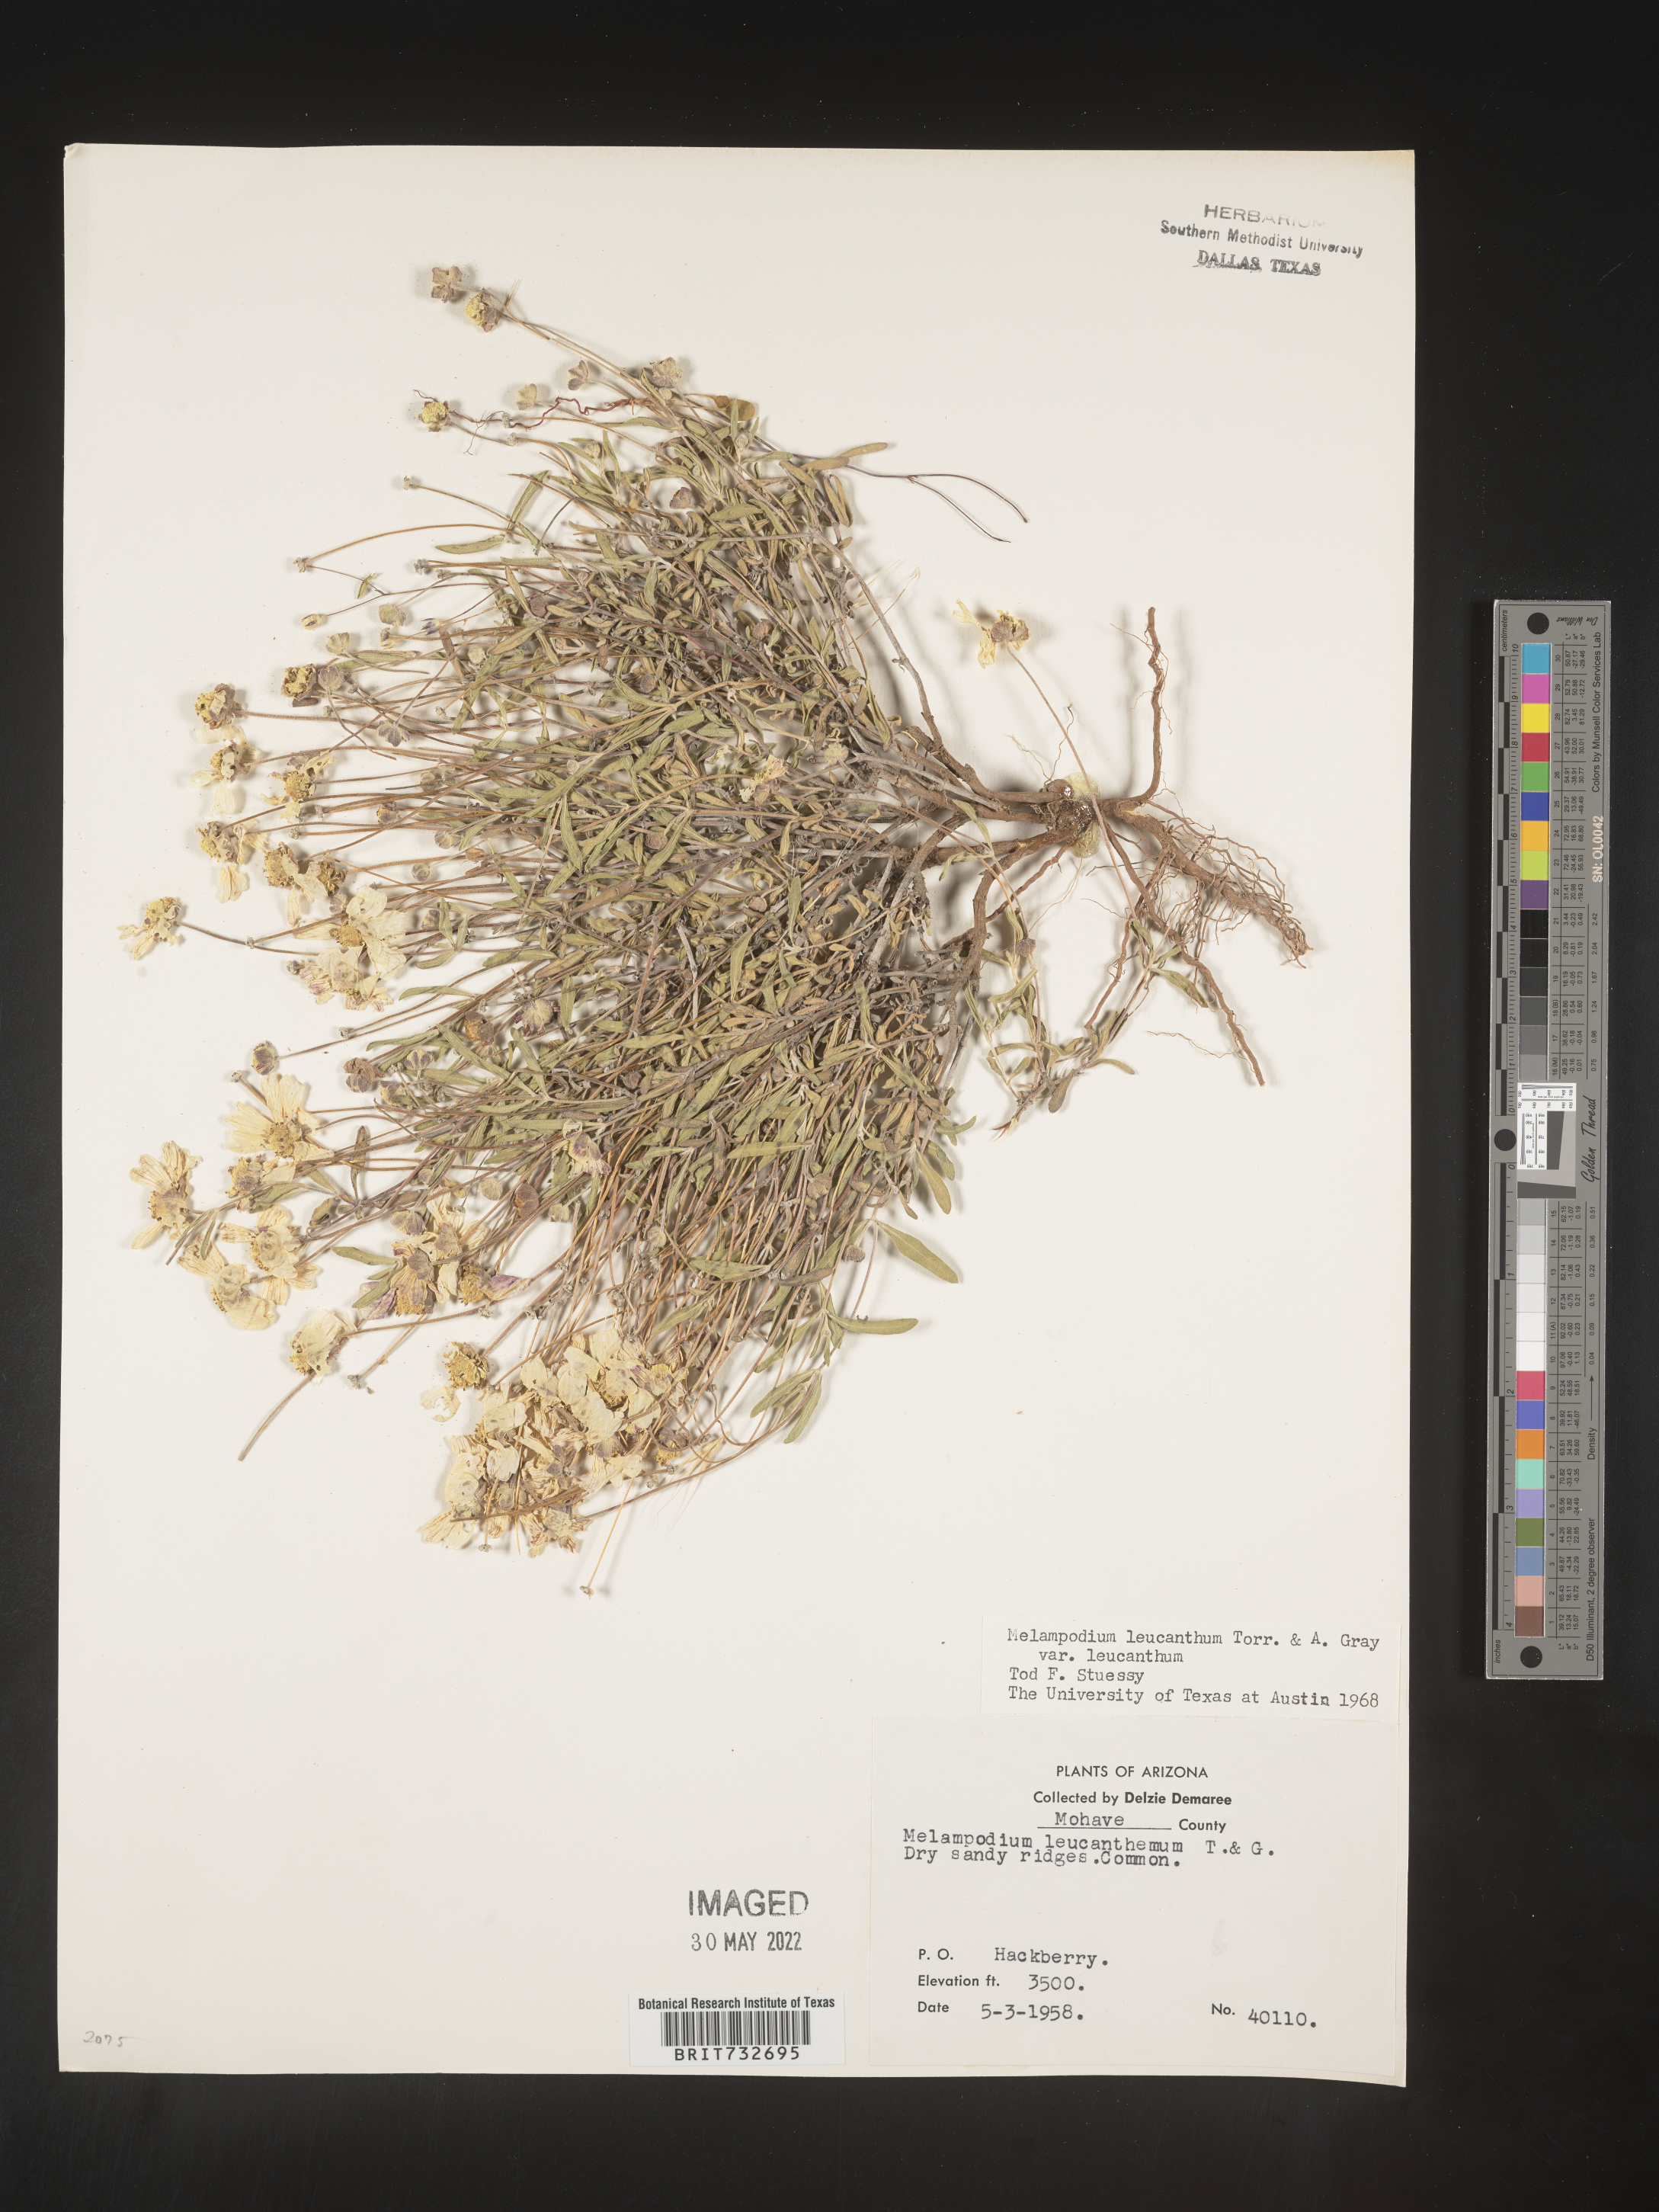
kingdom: Plantae
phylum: Tracheophyta
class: Magnoliopsida
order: Asterales
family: Asteraceae
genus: Melampodium
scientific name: Melampodium leucanthum
